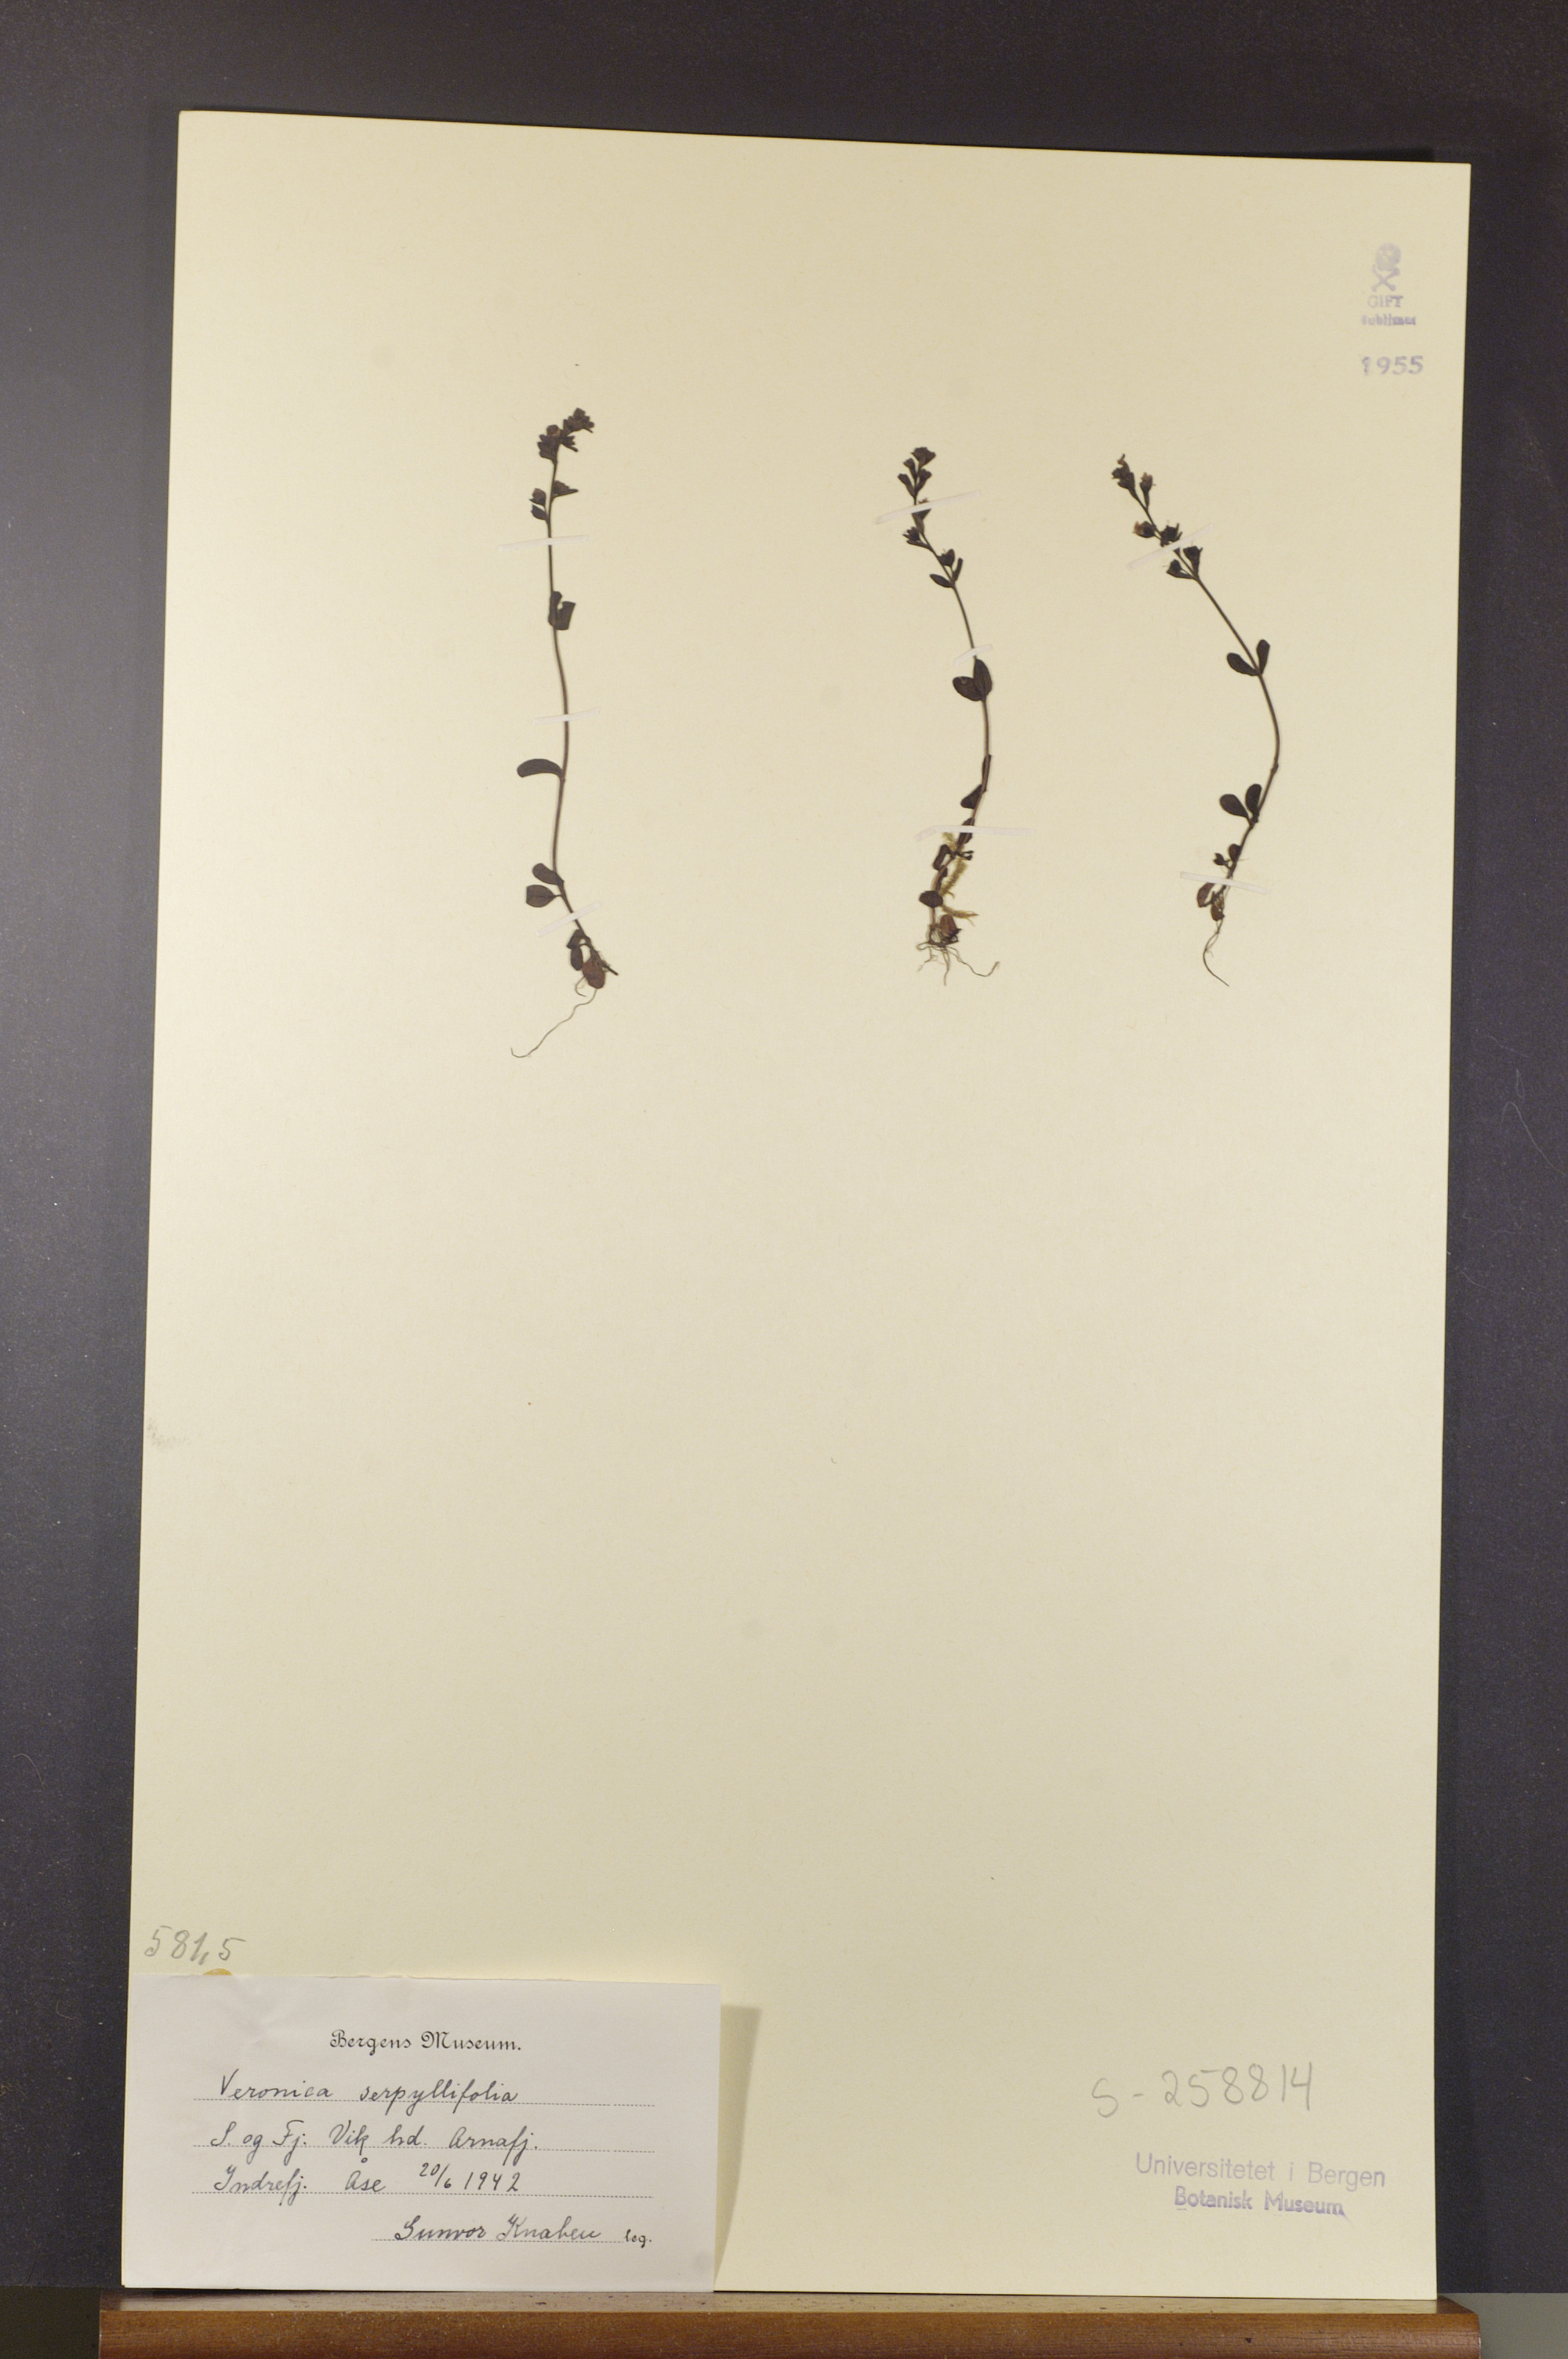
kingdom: Plantae
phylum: Tracheophyta
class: Magnoliopsida
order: Lamiales
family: Plantaginaceae
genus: Veronica
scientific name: Veronica serpyllifolia
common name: Thyme-leaved speedwell
